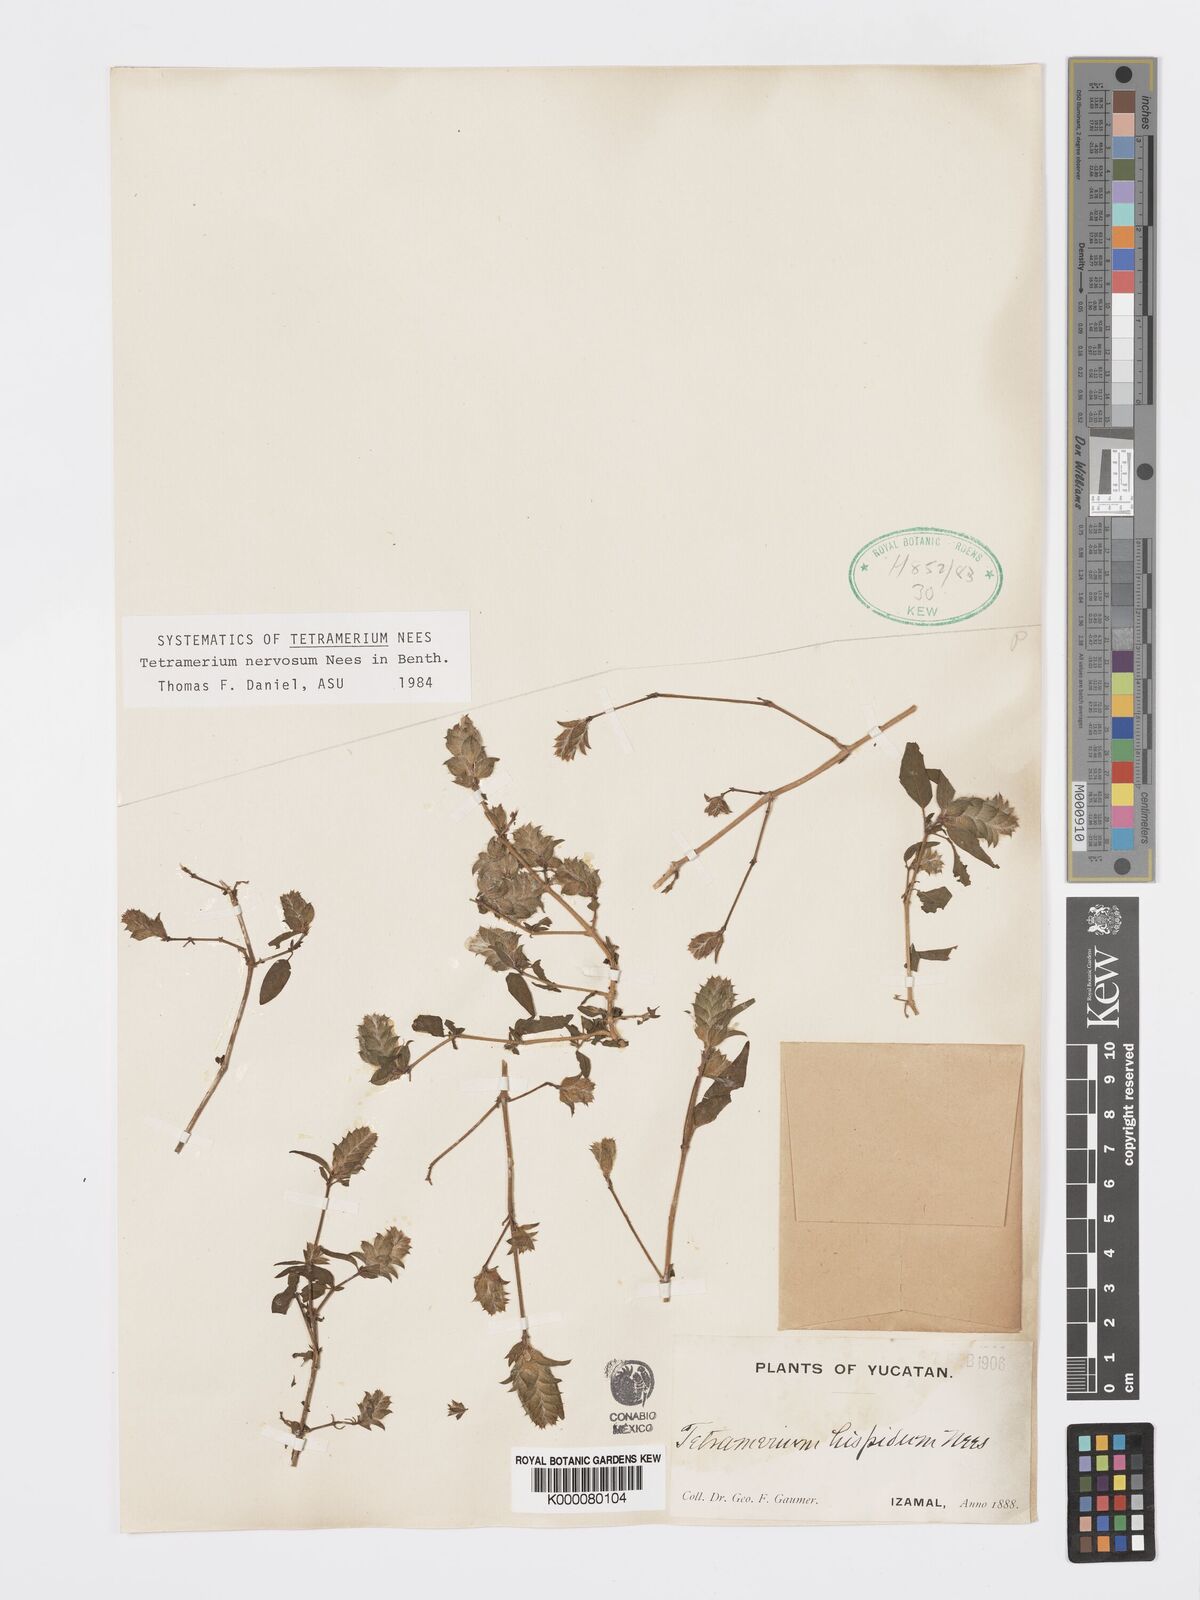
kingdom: Plantae
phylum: Tracheophyta
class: Magnoliopsida
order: Lamiales
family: Acanthaceae
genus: Tetramerium
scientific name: Tetramerium nervosum
